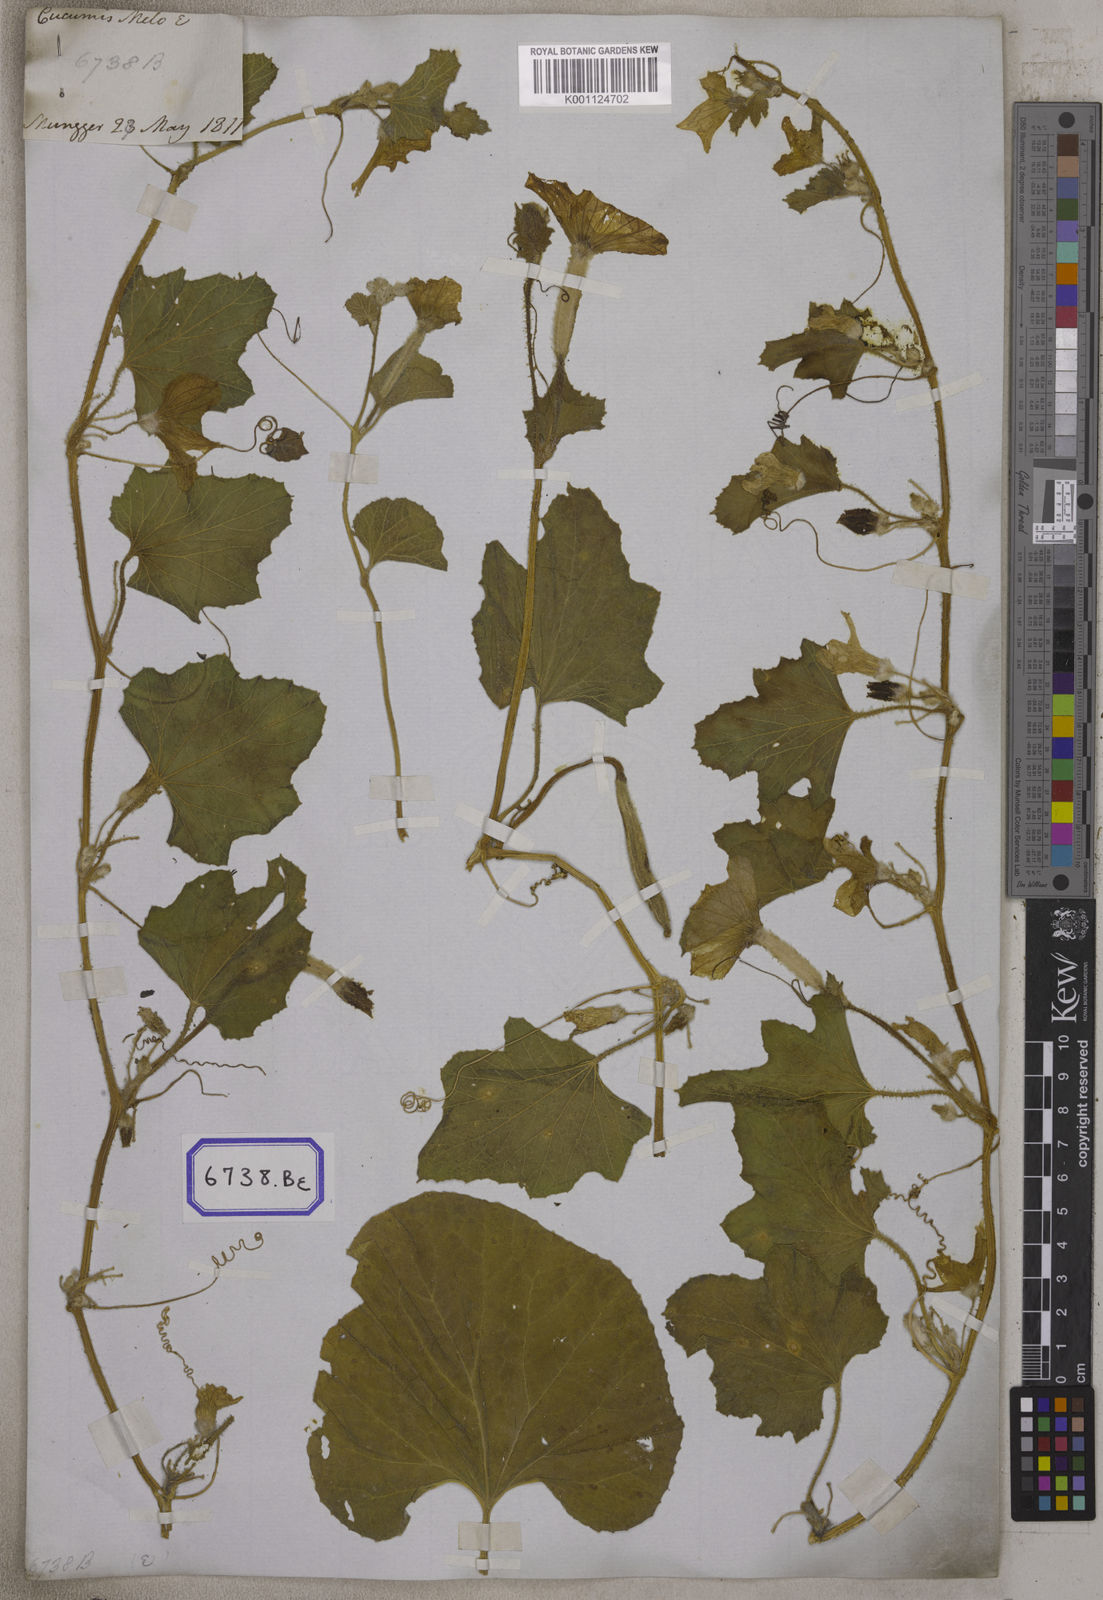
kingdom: Plantae
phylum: Tracheophyta
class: Magnoliopsida
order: Cucurbitales
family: Cucurbitaceae
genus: Cucumis
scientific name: Cucumis melo
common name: Melon
